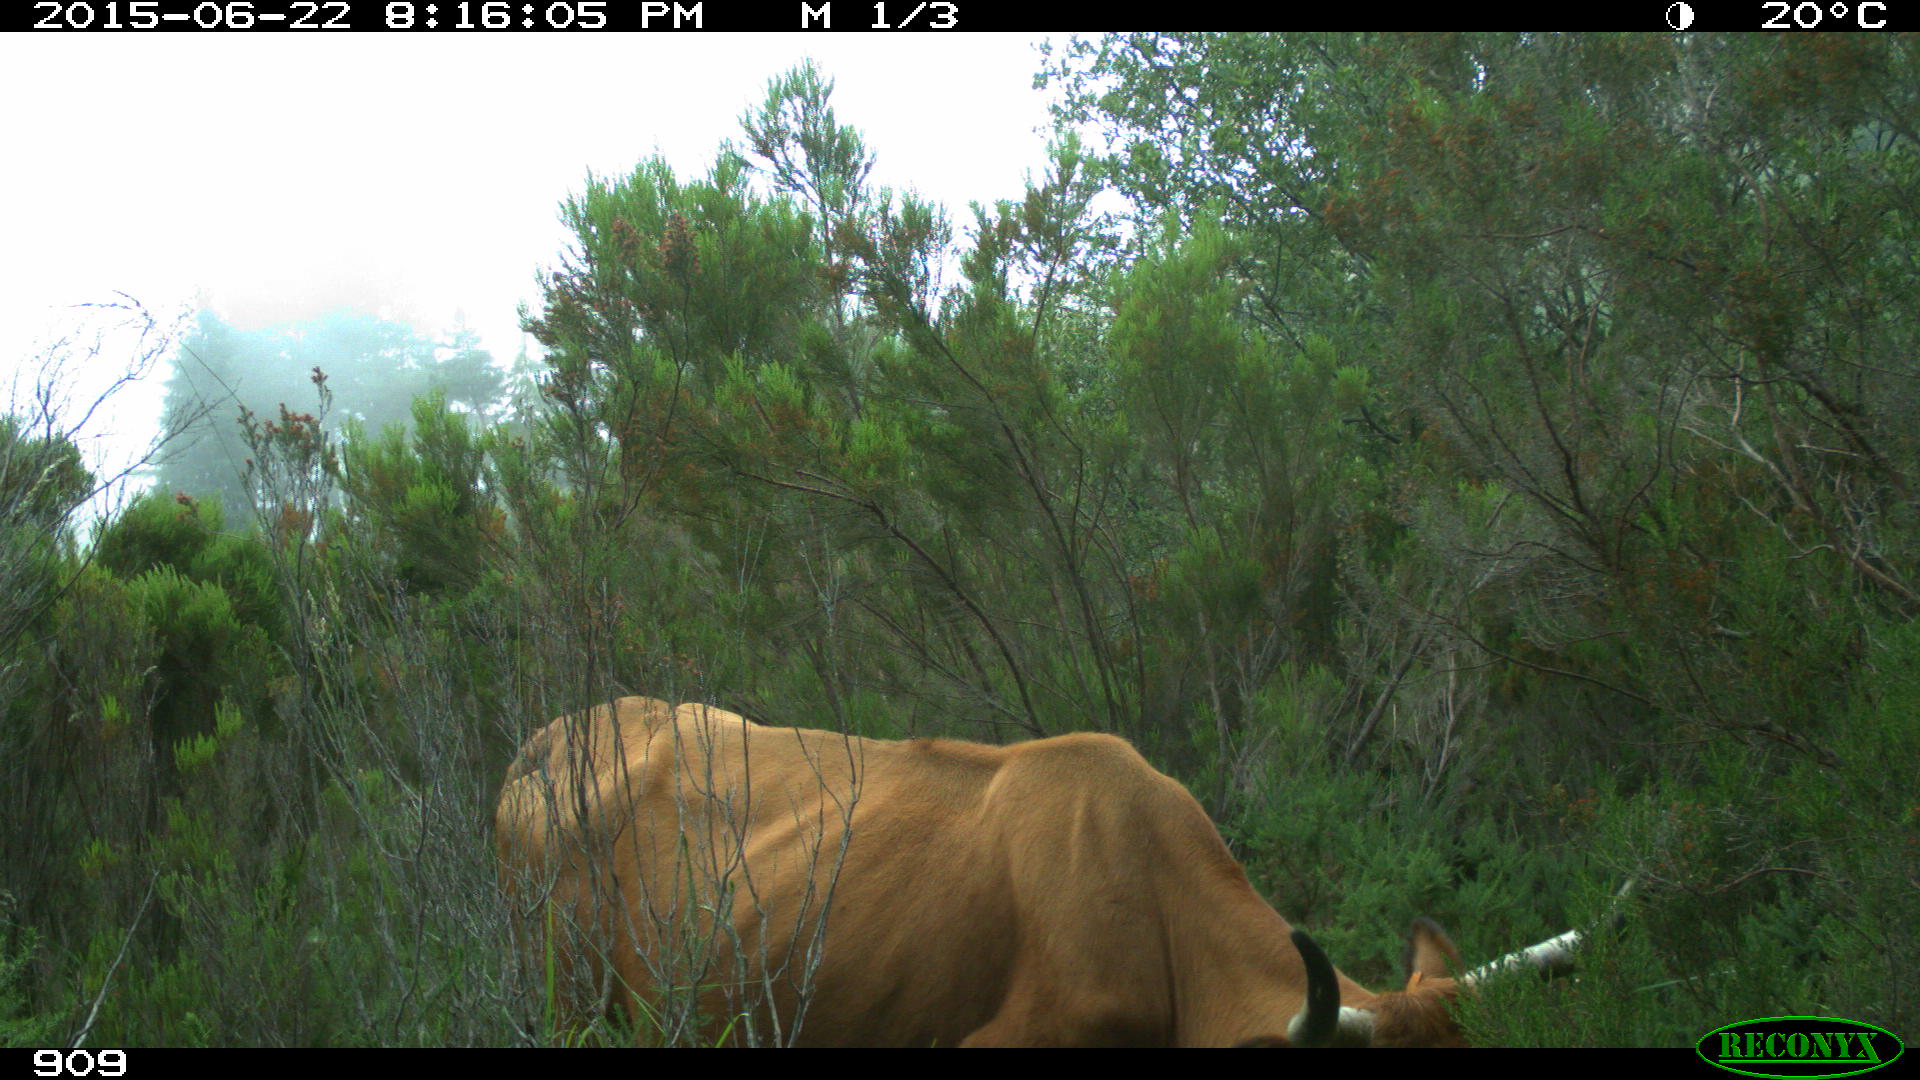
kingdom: Animalia
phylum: Chordata
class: Mammalia
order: Artiodactyla
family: Bovidae
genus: Bos
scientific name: Bos taurus
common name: Domesticated cattle
